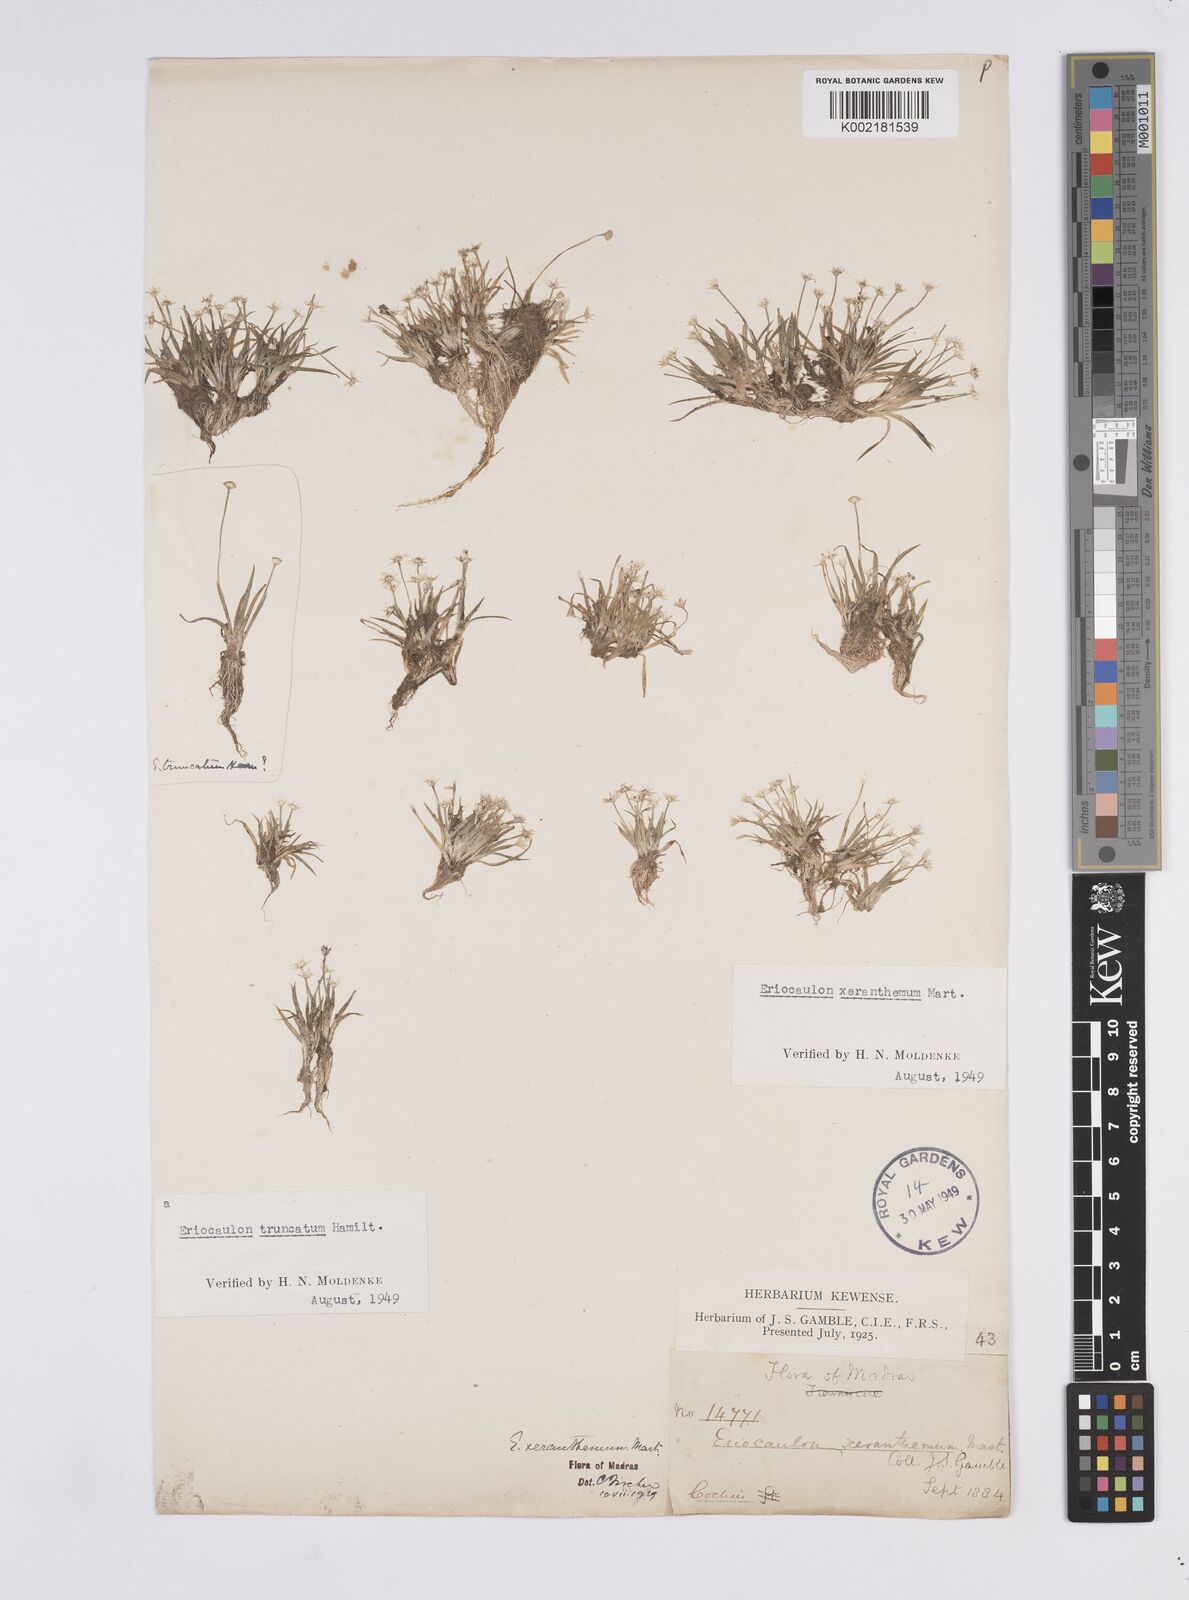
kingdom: Plantae
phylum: Tracheophyta
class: Liliopsida
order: Poales
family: Eriocaulaceae
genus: Eriocaulon
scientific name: Eriocaulon xeranthemum
